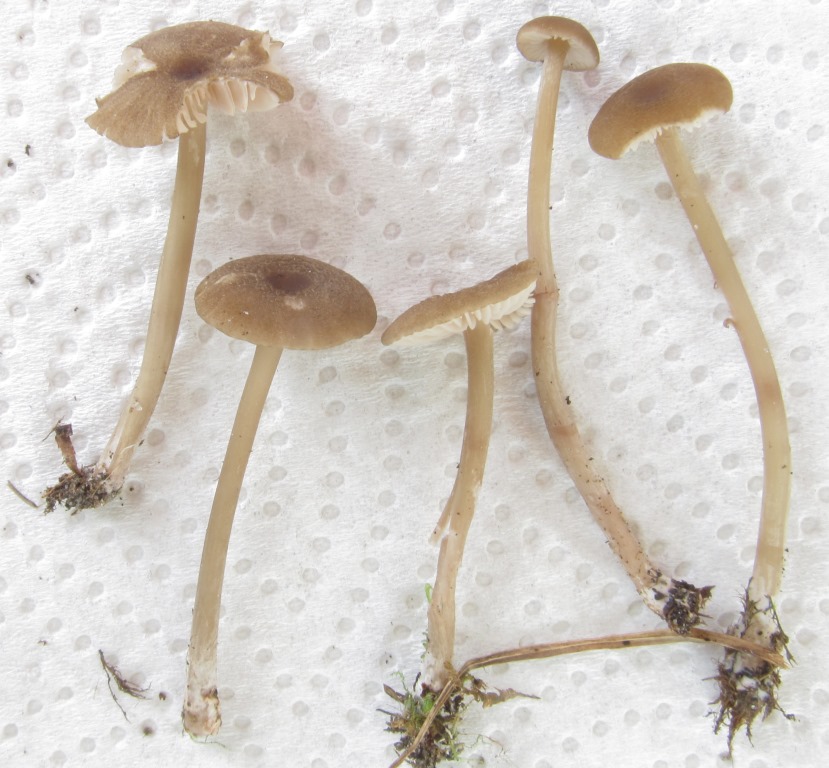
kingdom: Fungi
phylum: Basidiomycota
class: Agaricomycetes
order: Agaricales
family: Entolomataceae
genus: Entoloma
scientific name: Entoloma longistriatum
